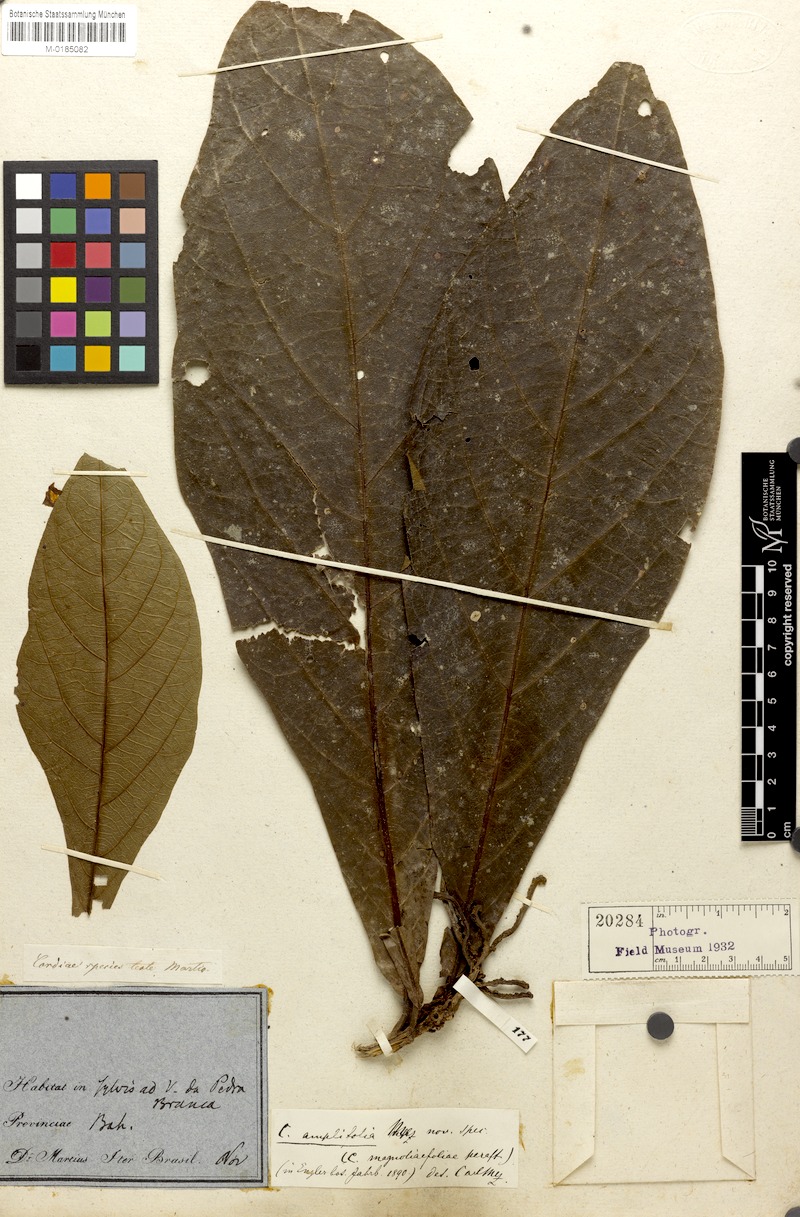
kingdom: Plantae
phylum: Tracheophyta
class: Magnoliopsida
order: Boraginales
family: Cordiaceae
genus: Cordia
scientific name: Cordia taguahuyensis
